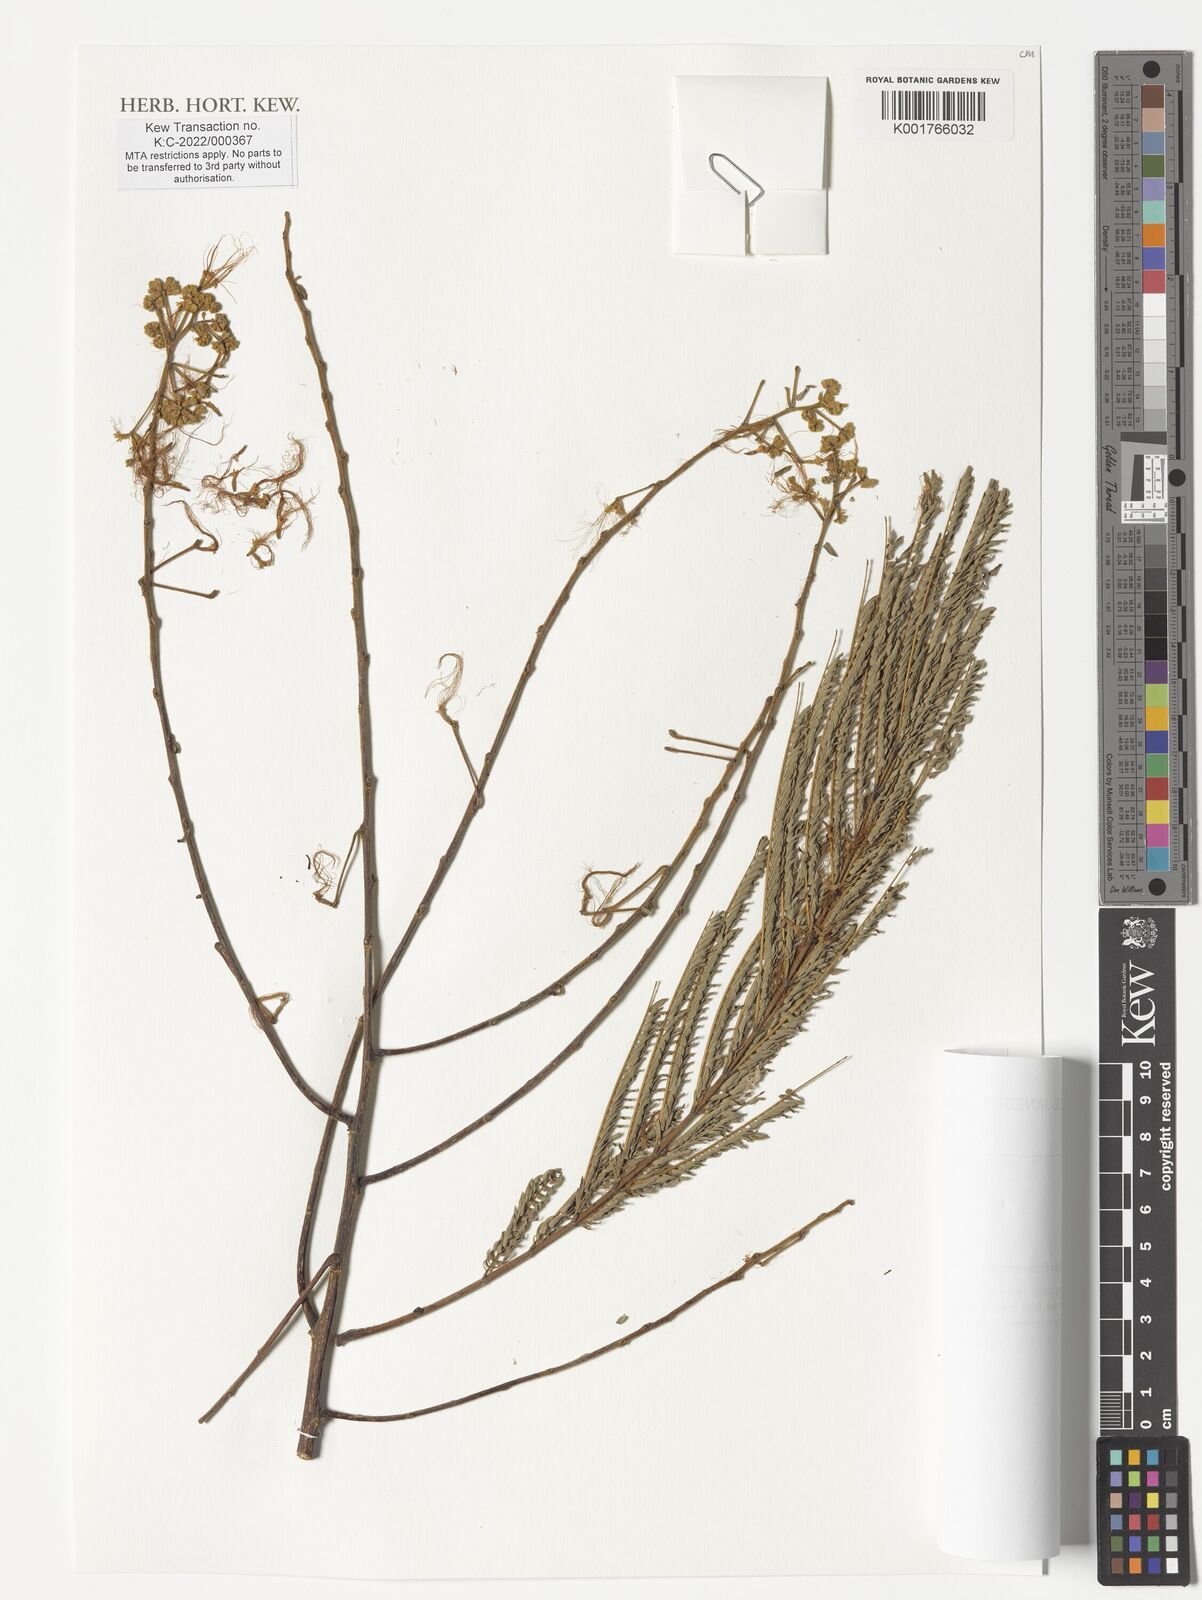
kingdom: Plantae
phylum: Tracheophyta
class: Magnoliopsida
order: Fabales
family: Fabaceae
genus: Albizia
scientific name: Albizia
